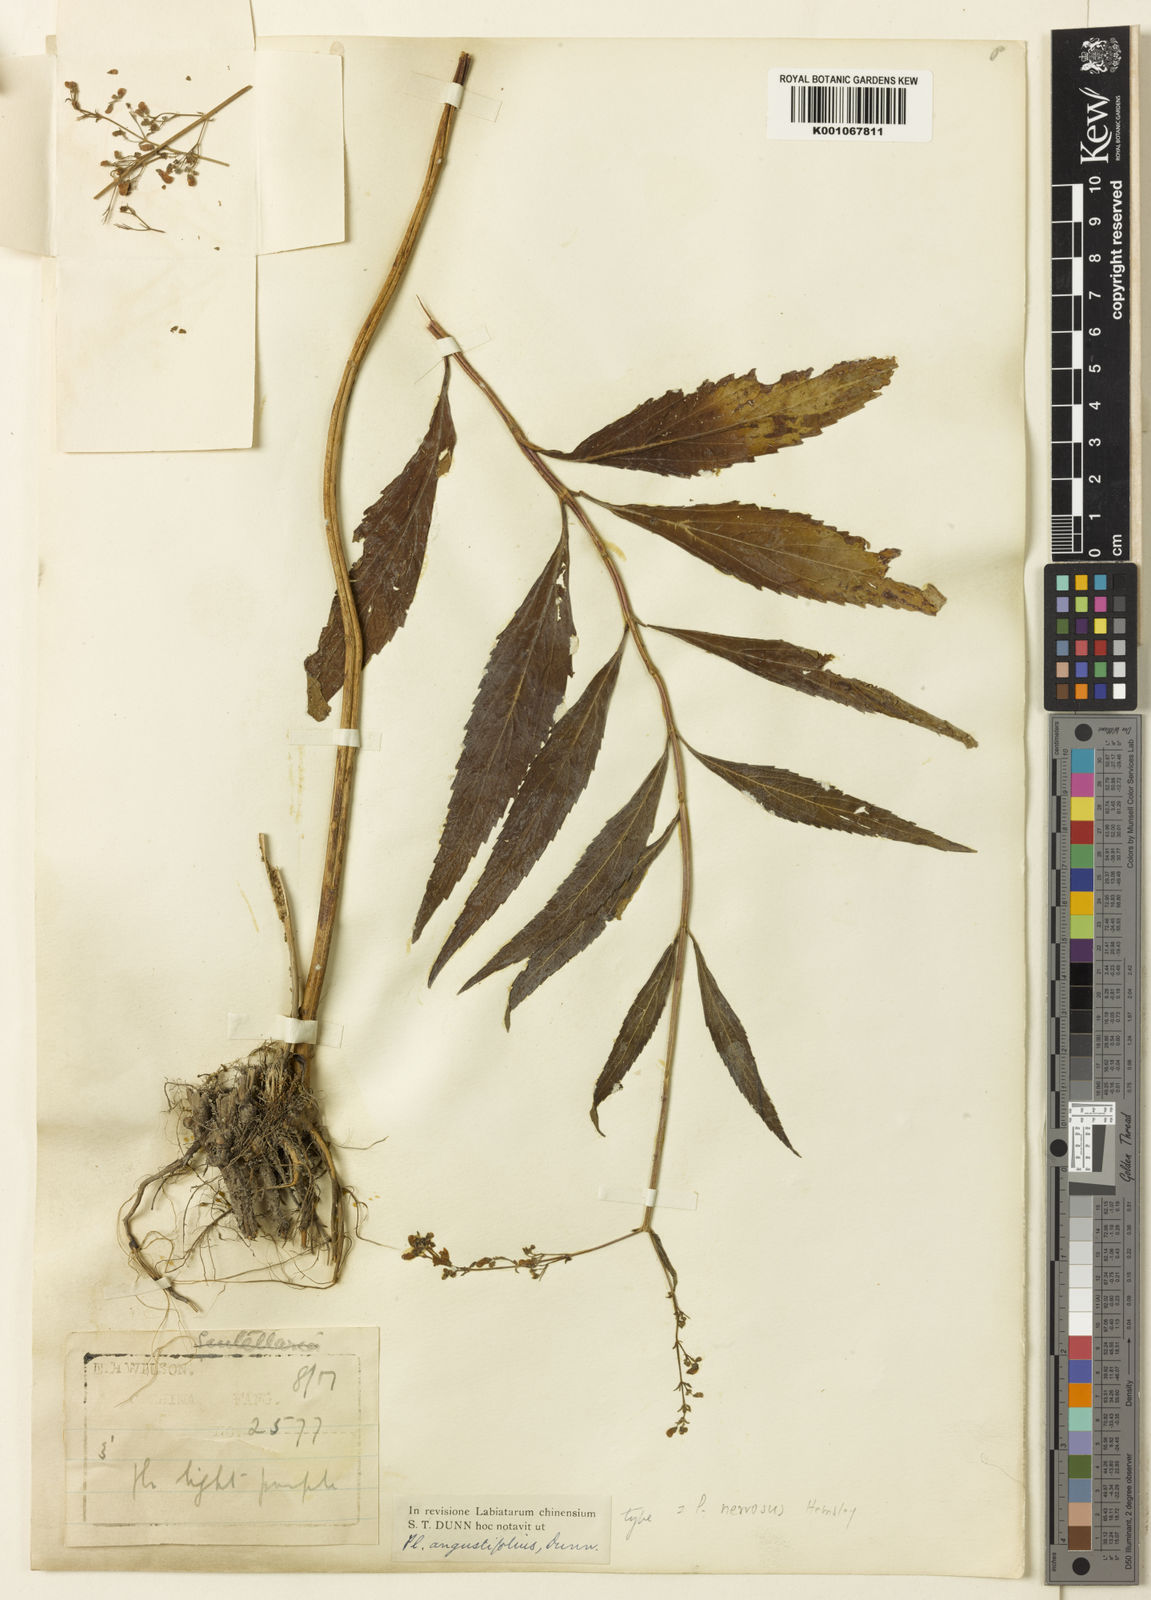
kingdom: Plantae
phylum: Tracheophyta
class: Magnoliopsida
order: Lamiales
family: Lamiaceae
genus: Isodon
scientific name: Isodon
